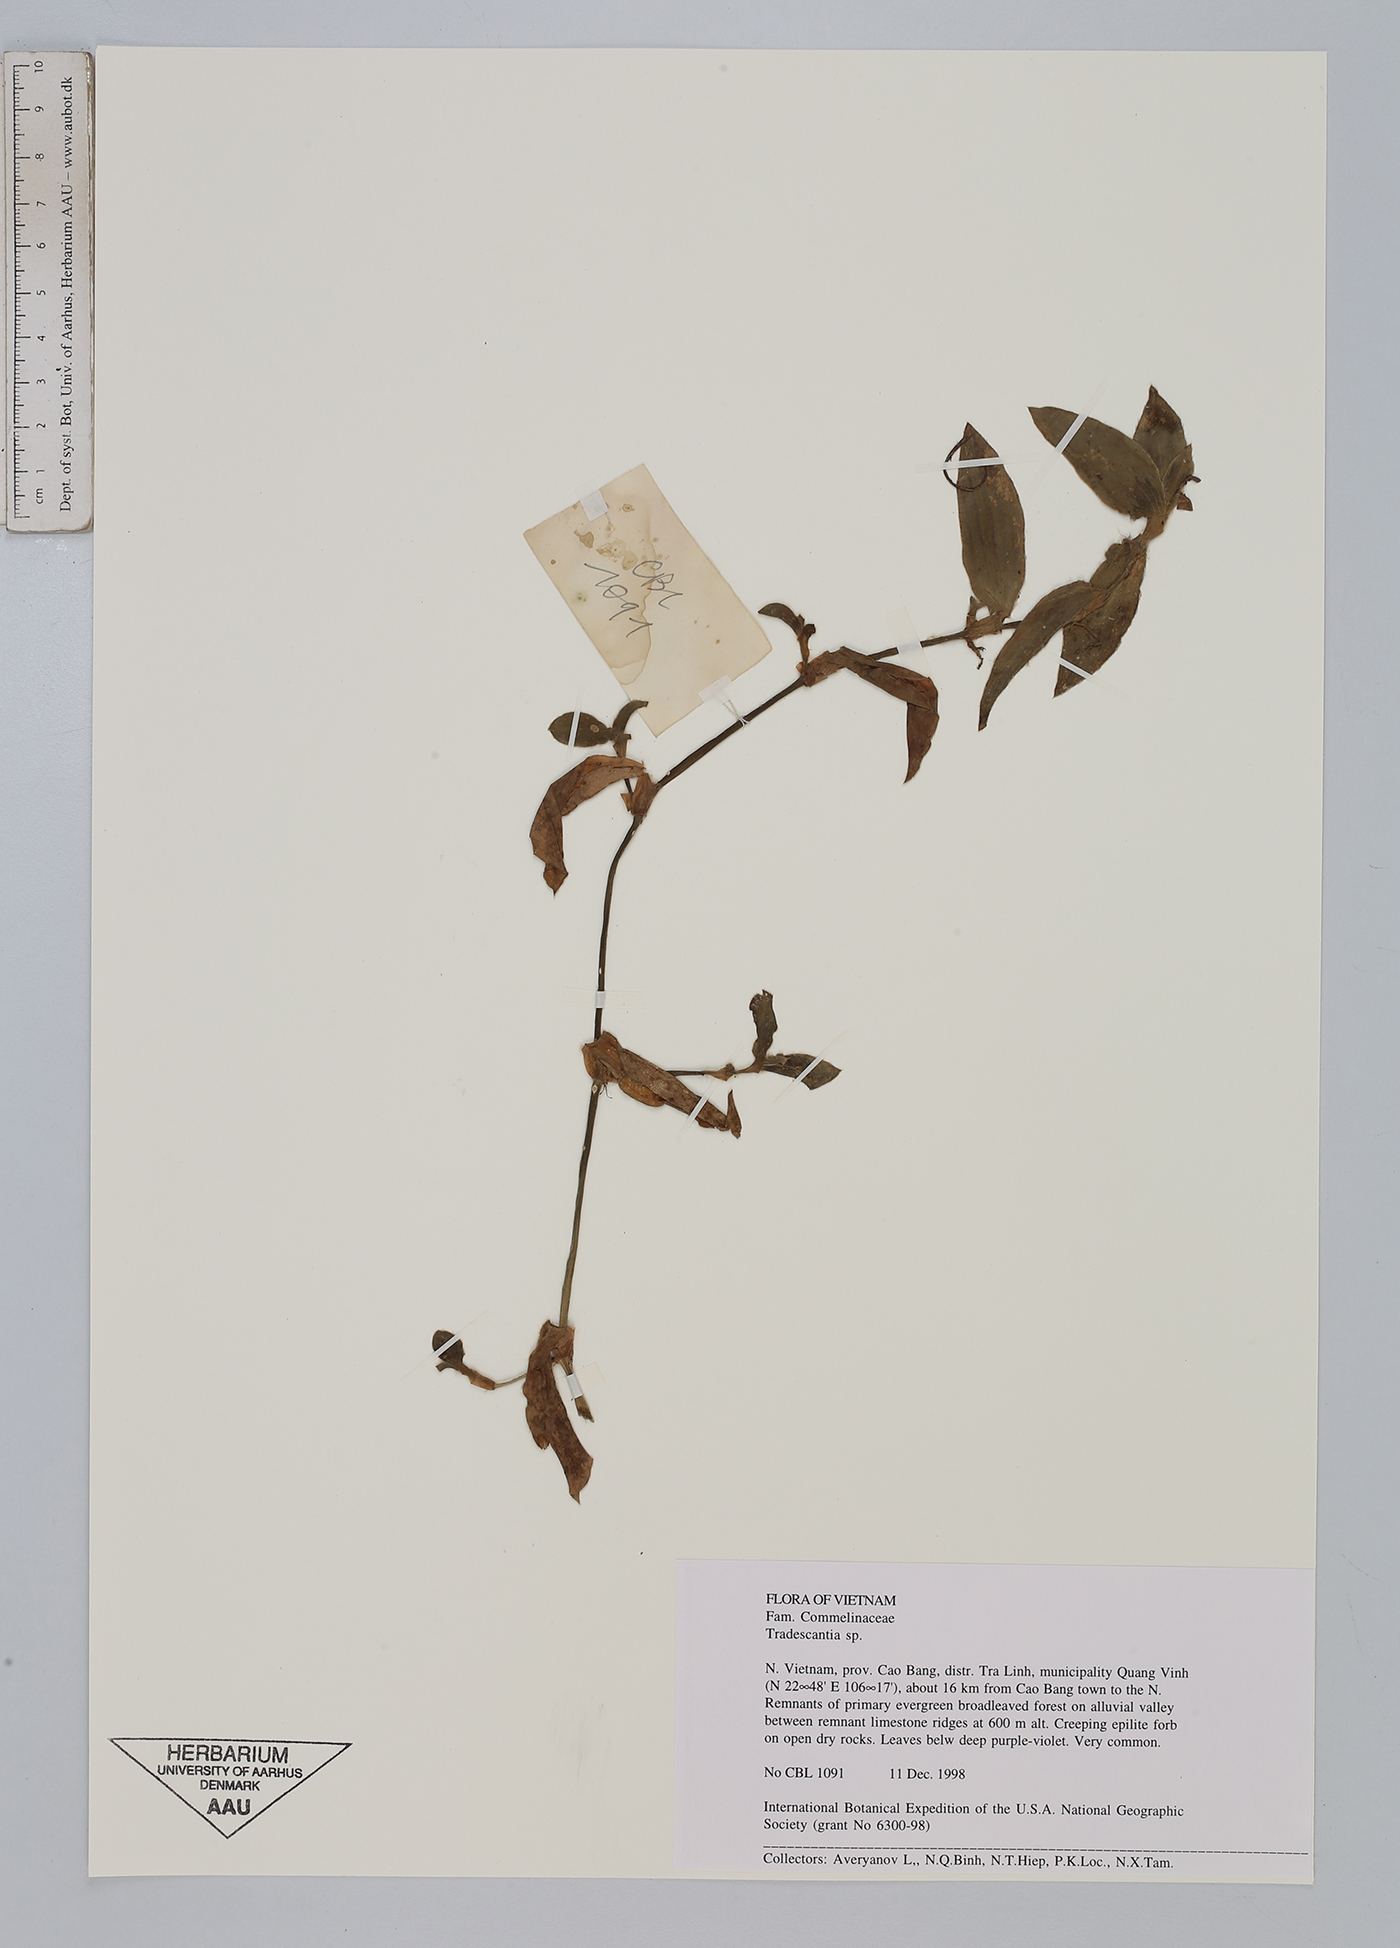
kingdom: Plantae
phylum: Tracheophyta
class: Liliopsida
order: Commelinales
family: Commelinaceae
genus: Tradescantia
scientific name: Tradescantia
